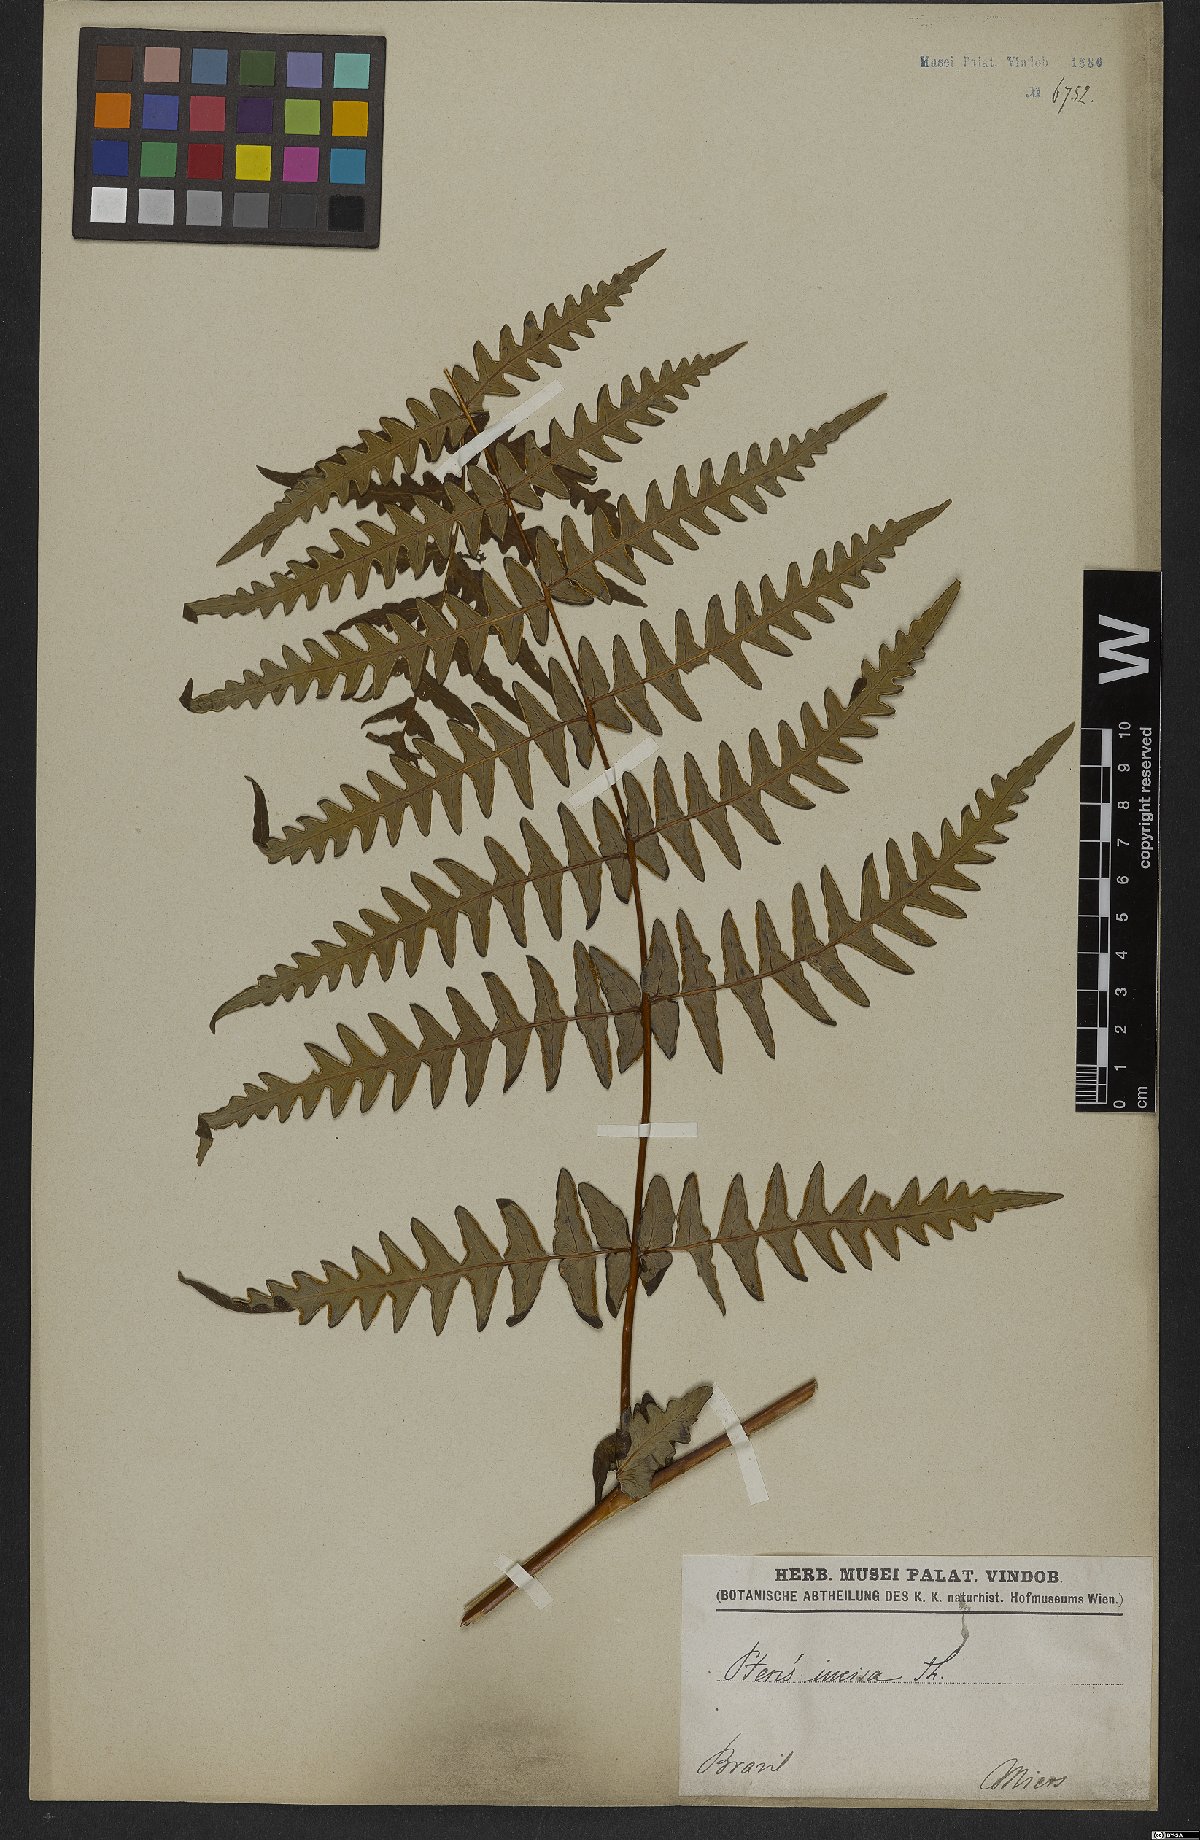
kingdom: Plantae
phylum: Tracheophyta
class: Polypodiopsida
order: Polypodiales
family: Dennstaedtiaceae
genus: Histiopteris
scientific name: Histiopteris incisa
